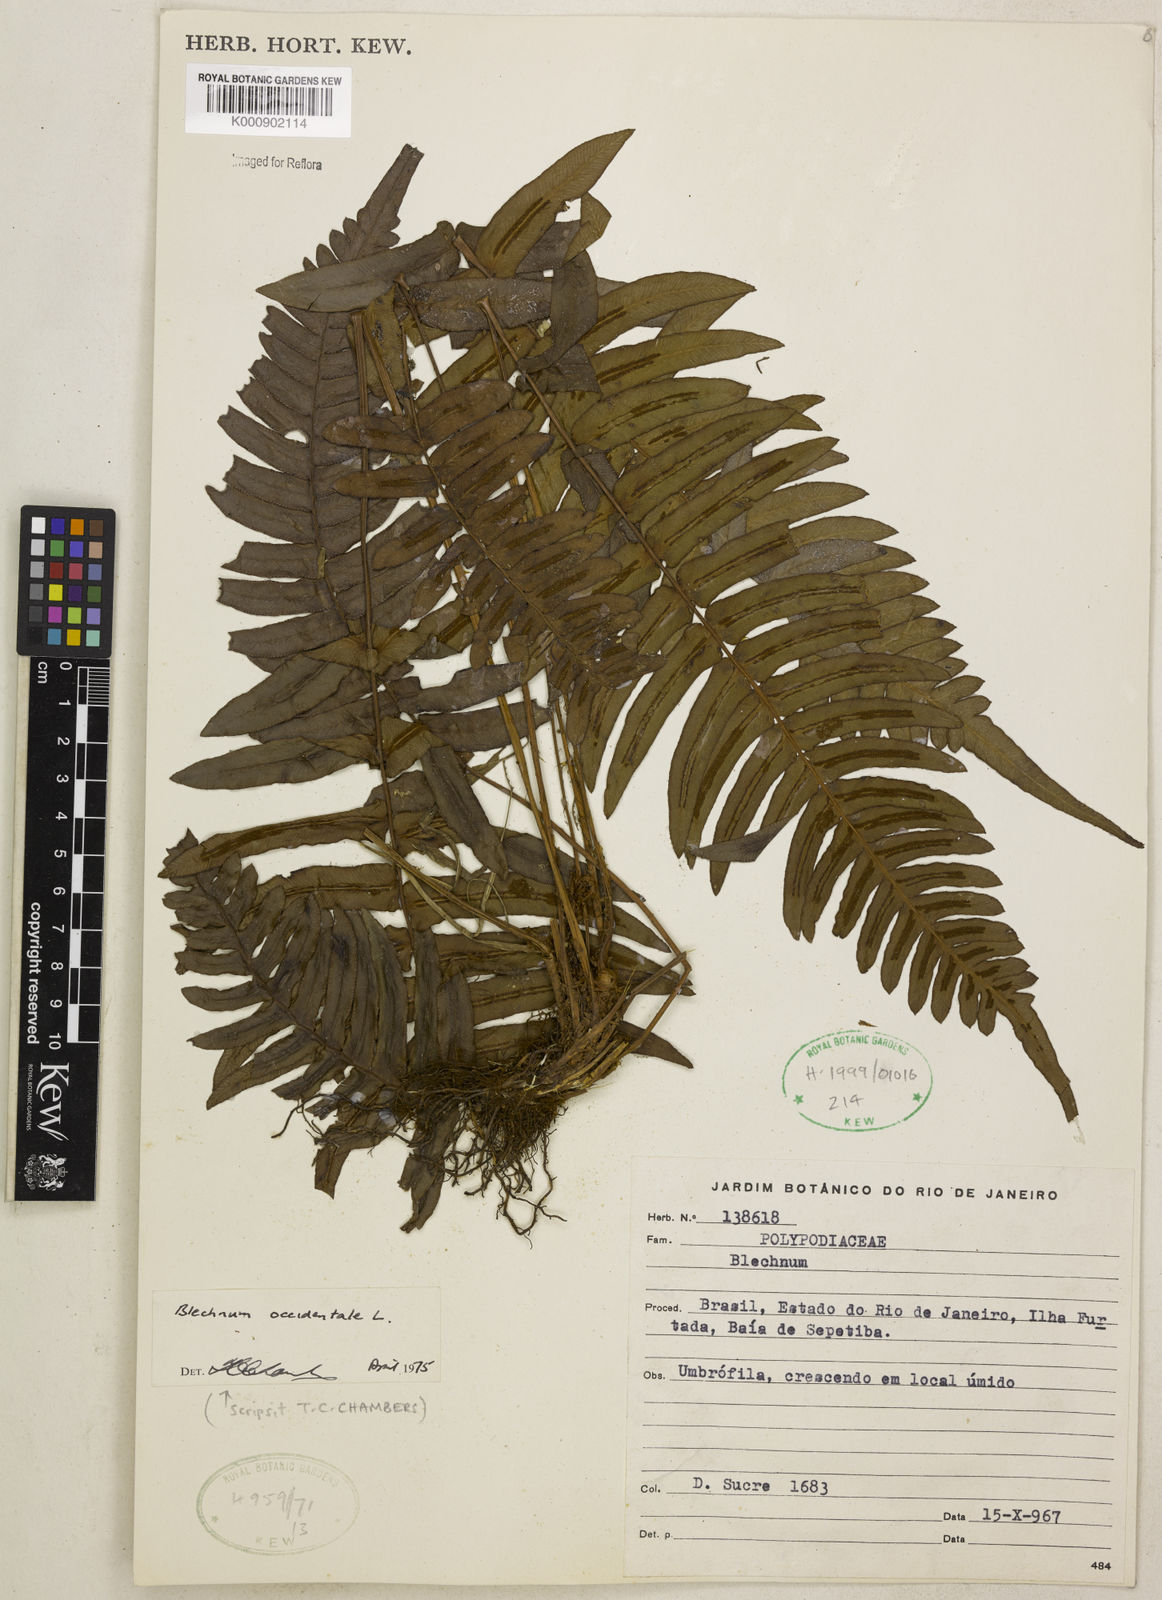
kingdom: Plantae
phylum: Tracheophyta
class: Polypodiopsida
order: Polypodiales
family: Blechnaceae
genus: Blechnum
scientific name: Blechnum occidentale
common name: Hammock fern
